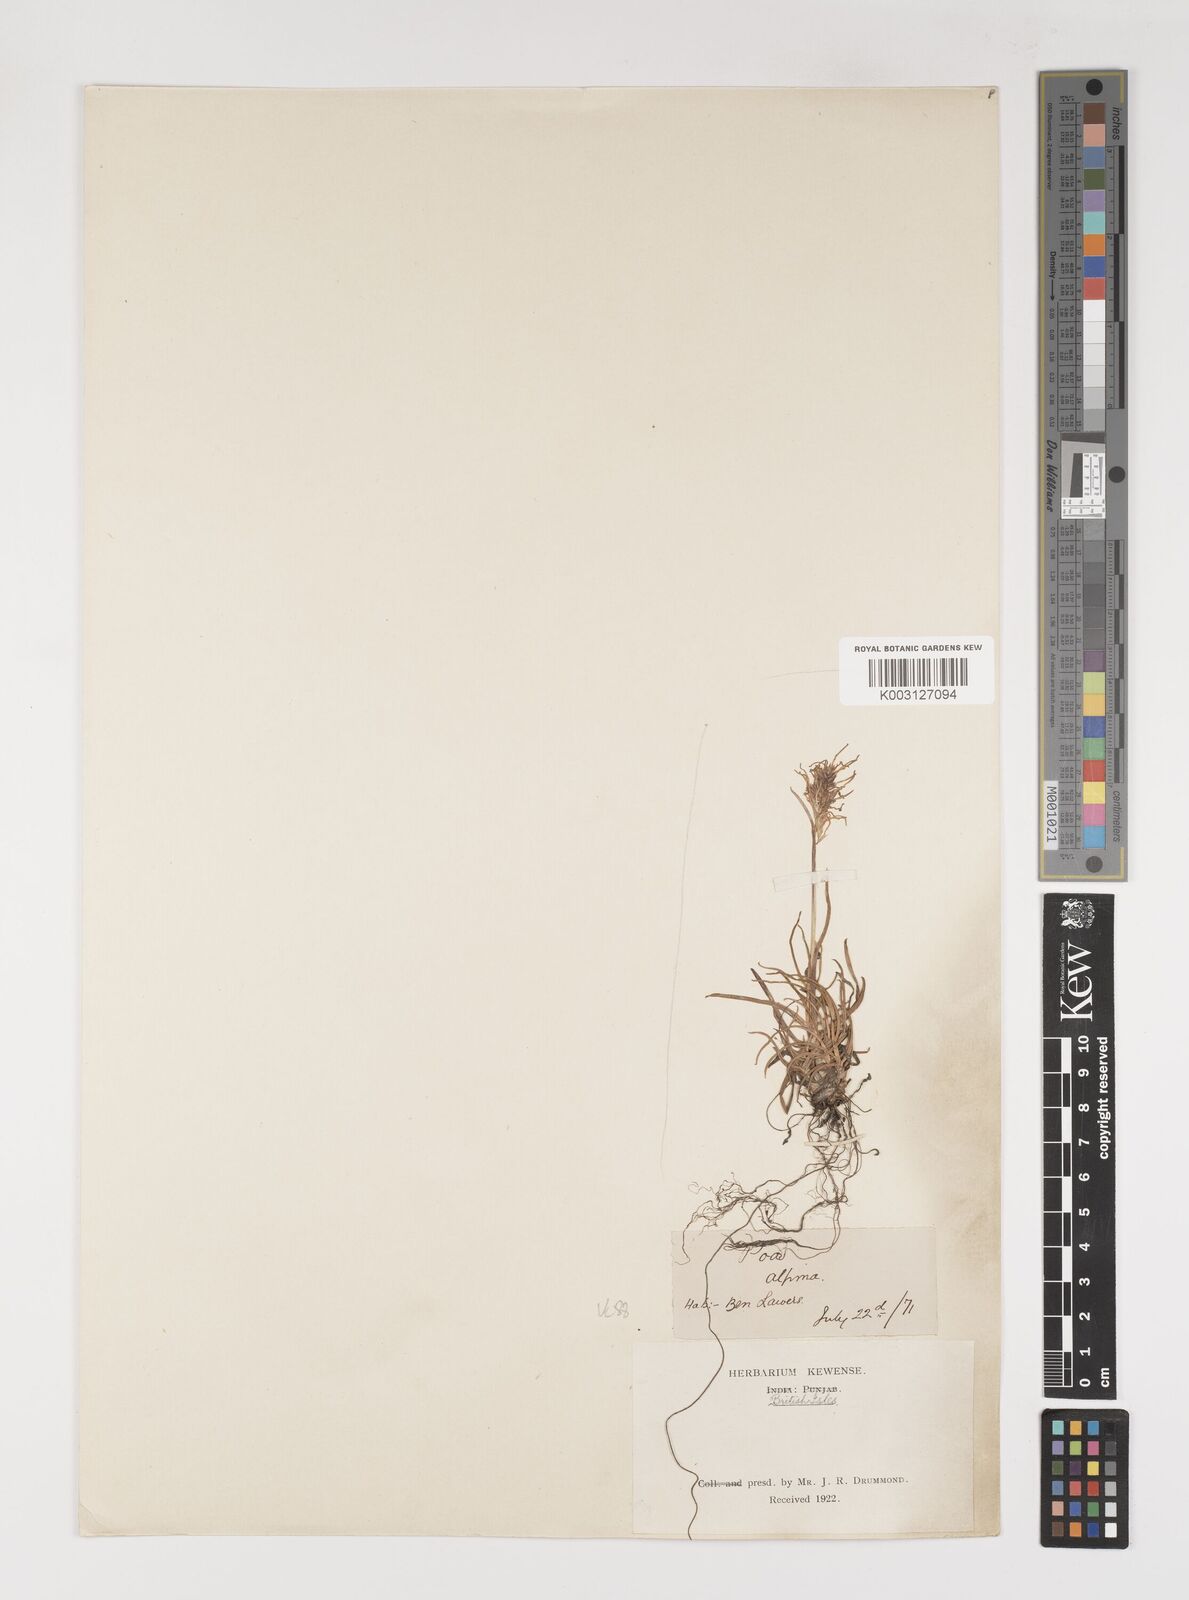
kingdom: Plantae
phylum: Tracheophyta
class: Liliopsida
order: Poales
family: Poaceae
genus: Poa
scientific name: Poa alpina
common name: Alpine bluegrass
